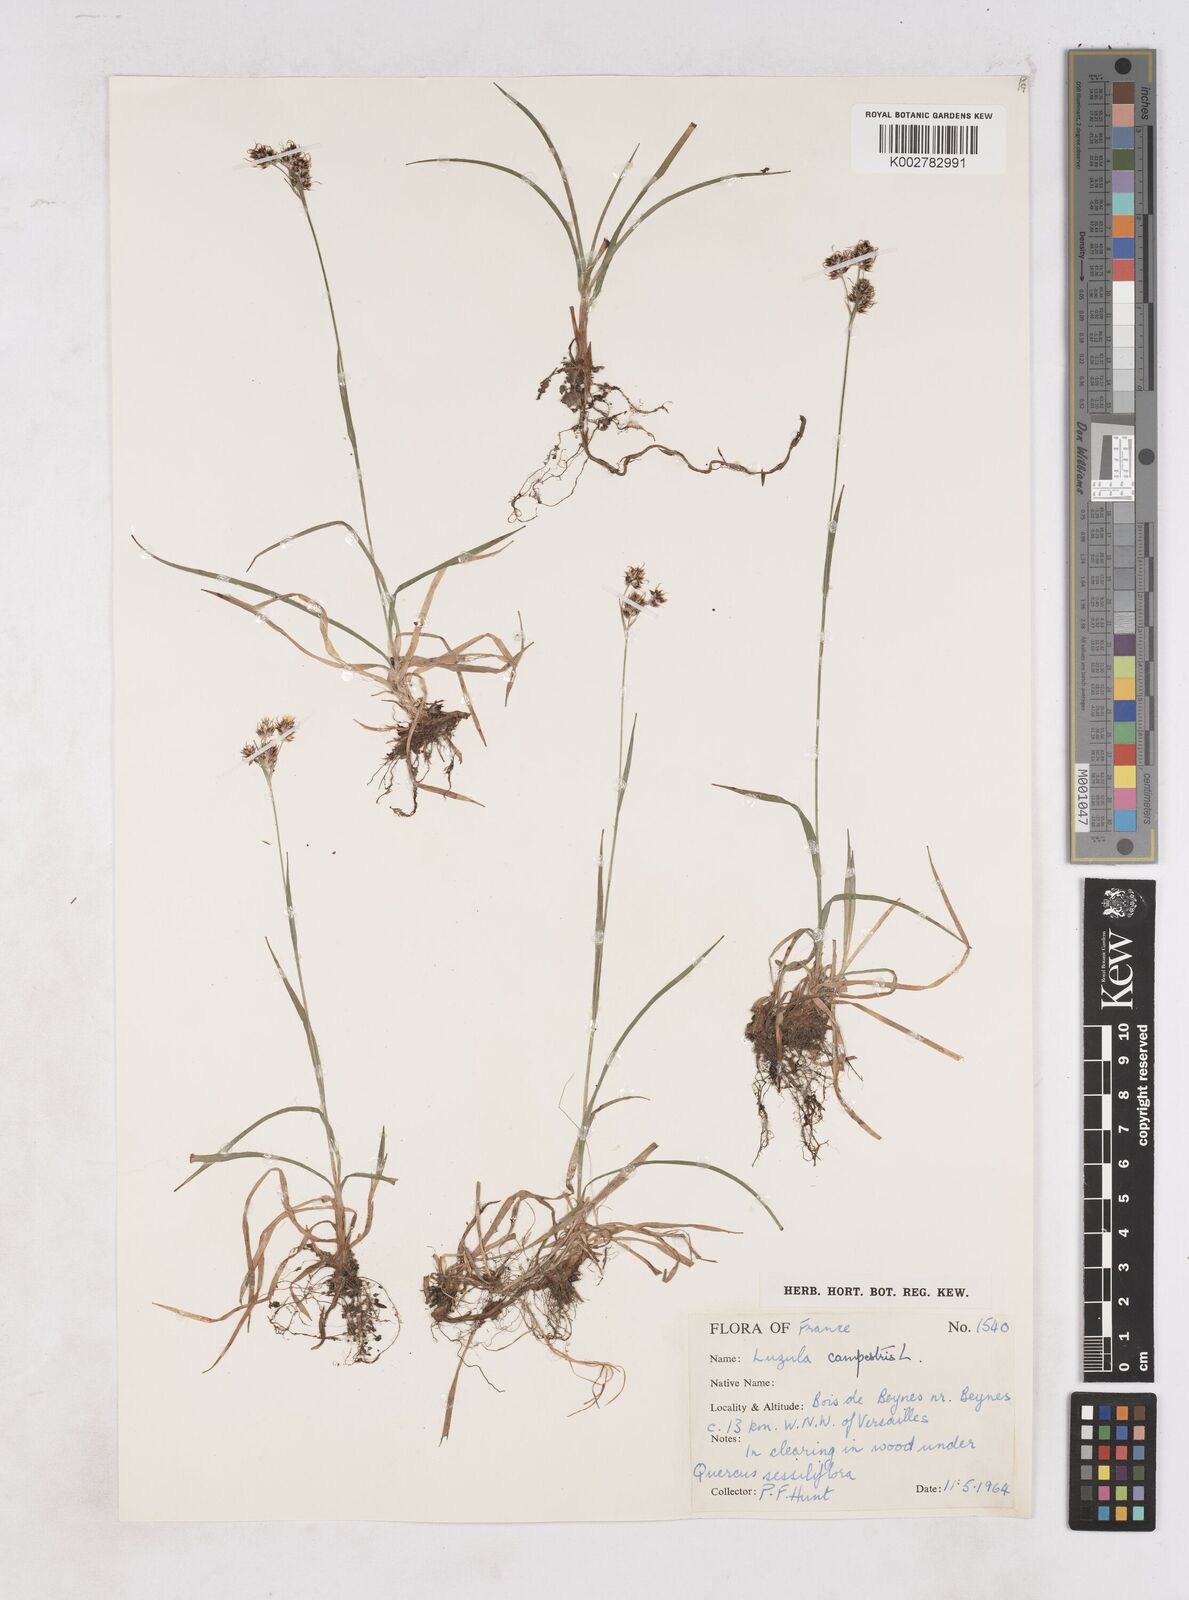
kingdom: Plantae
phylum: Tracheophyta
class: Liliopsida
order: Poales
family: Juncaceae
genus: Luzula
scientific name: Luzula campestris
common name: Field wood-rush
